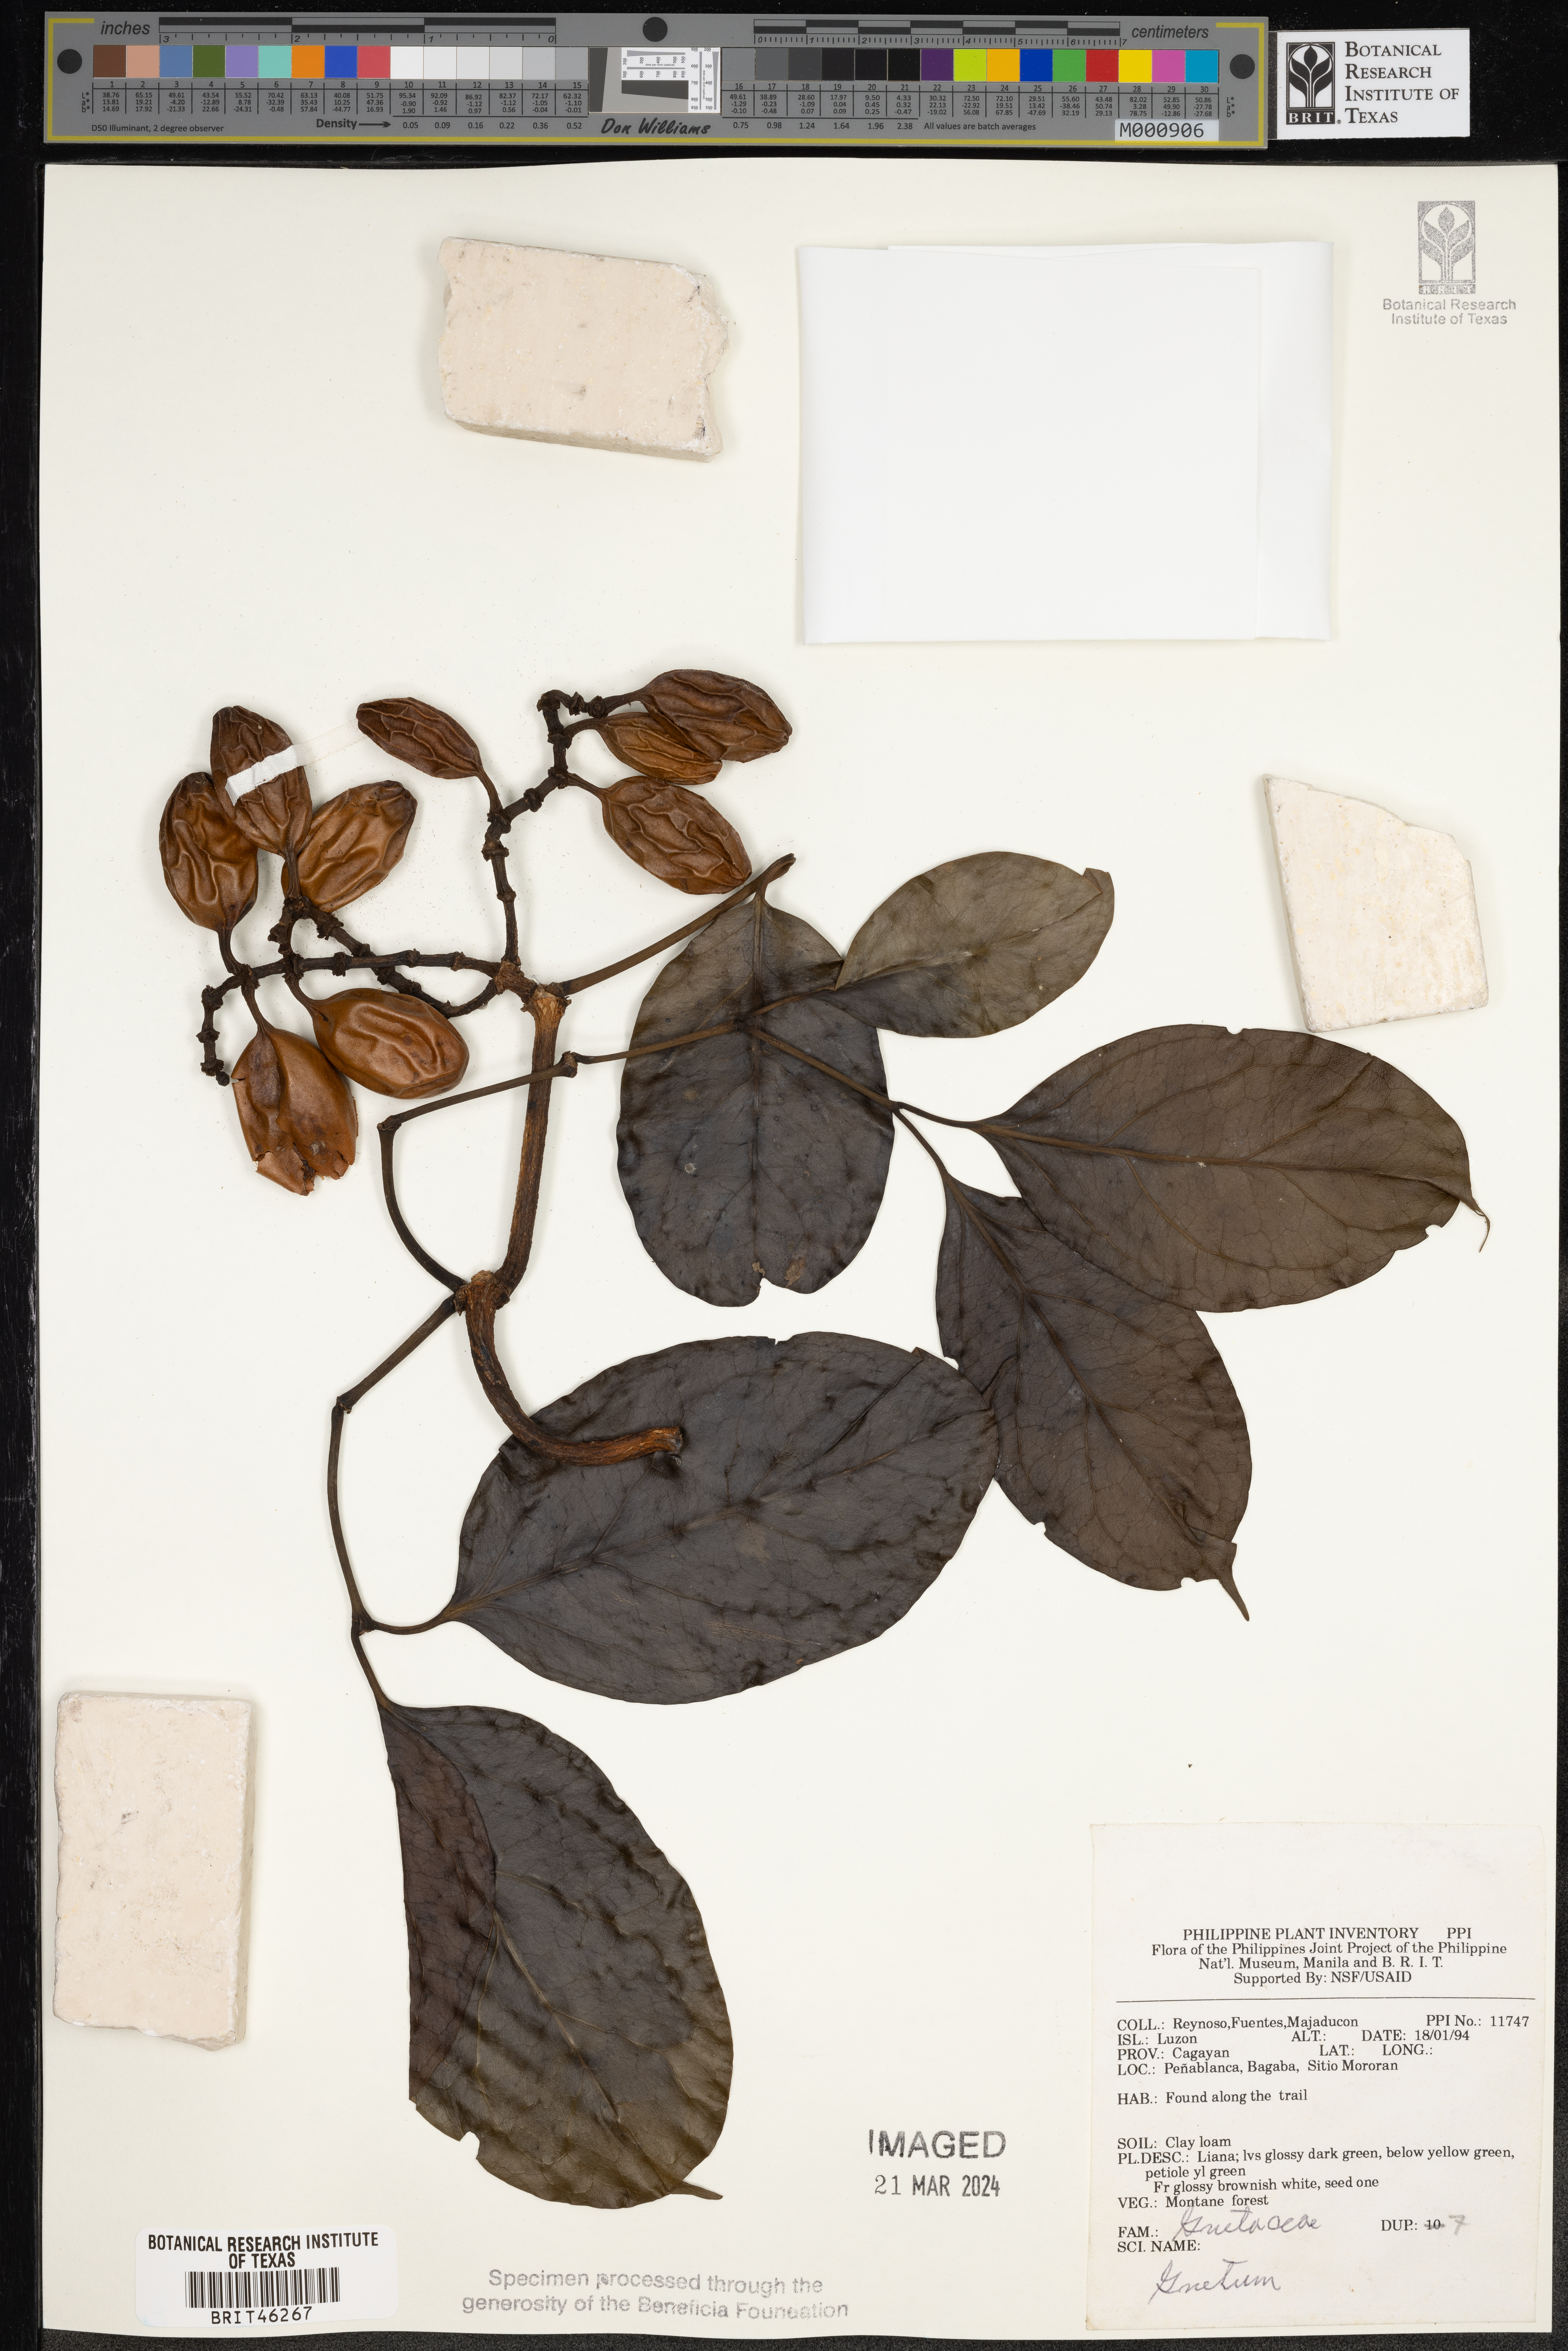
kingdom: Plantae
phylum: Tracheophyta
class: Gnetopsida
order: Gnetales
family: Gnetaceae
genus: Gnetum
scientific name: Gnetum
